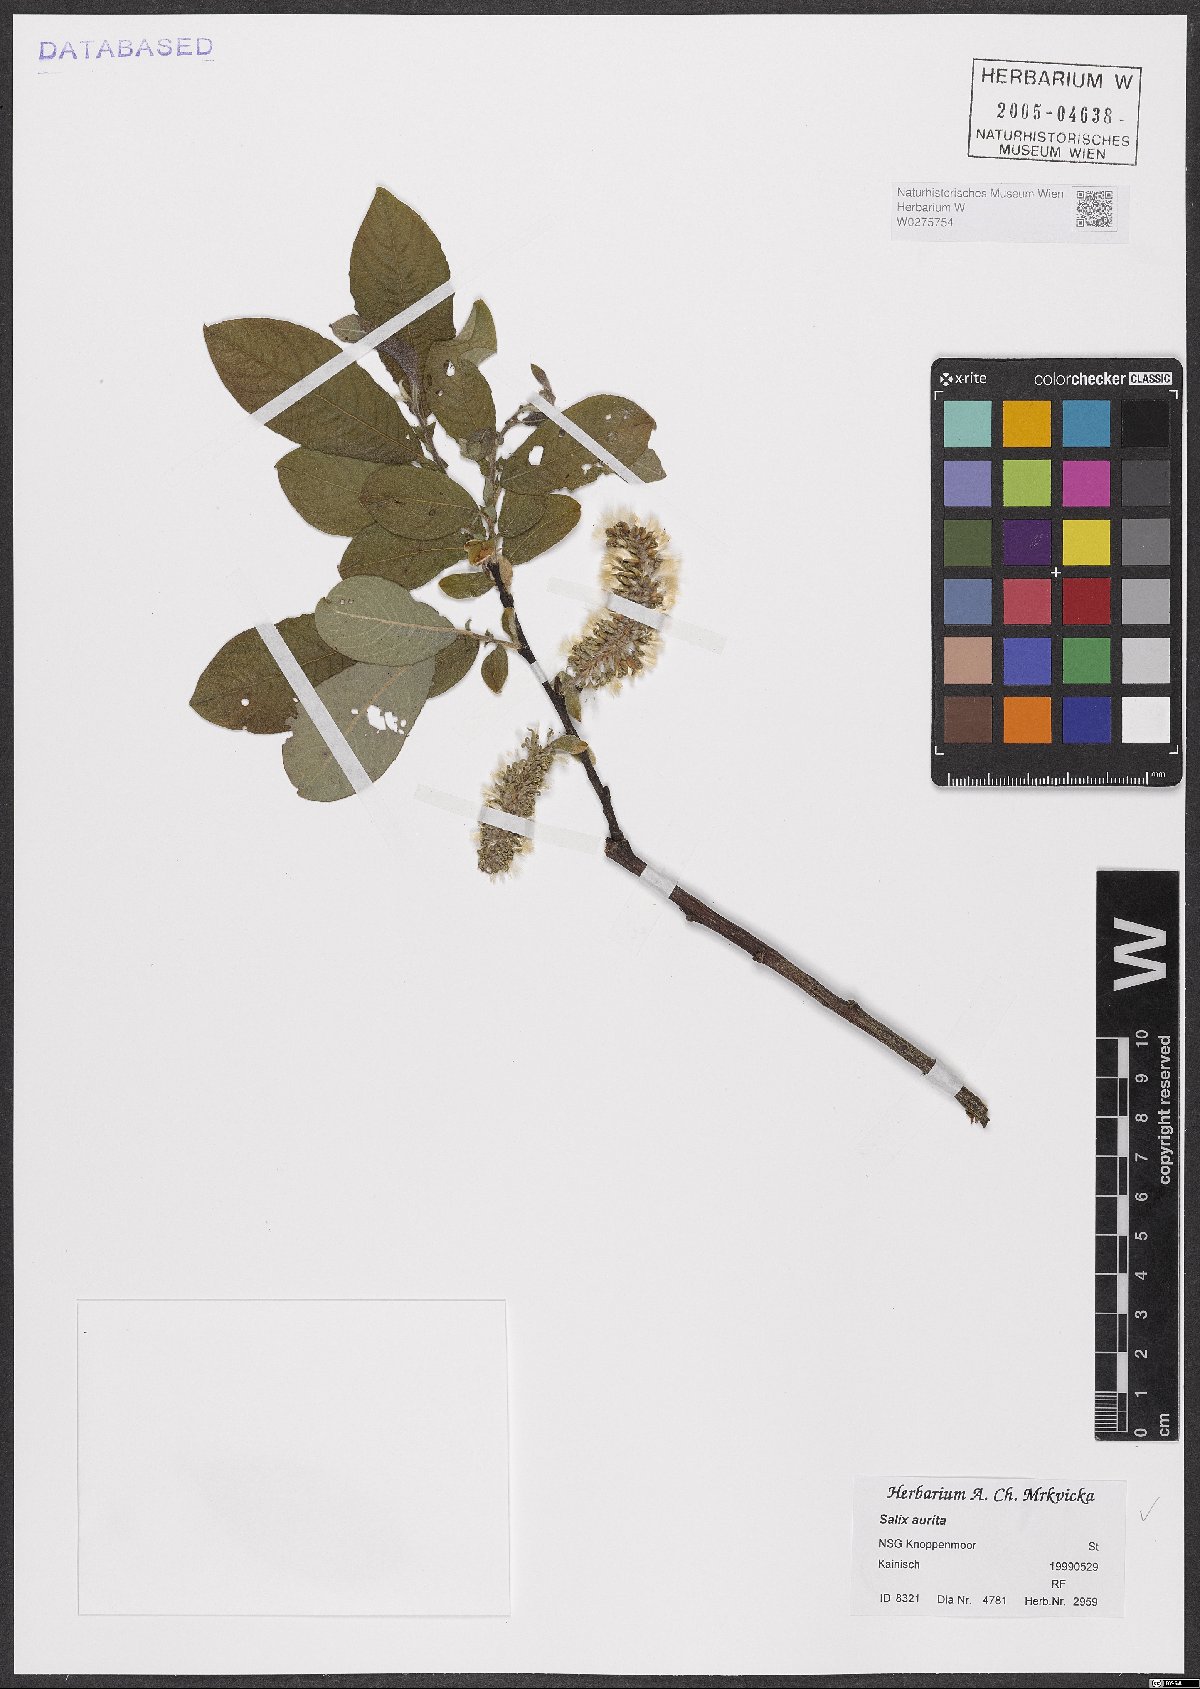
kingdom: Plantae
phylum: Tracheophyta
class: Magnoliopsida
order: Malpighiales
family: Salicaceae
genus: Salix
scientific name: Salix aurita
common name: Eared willow
